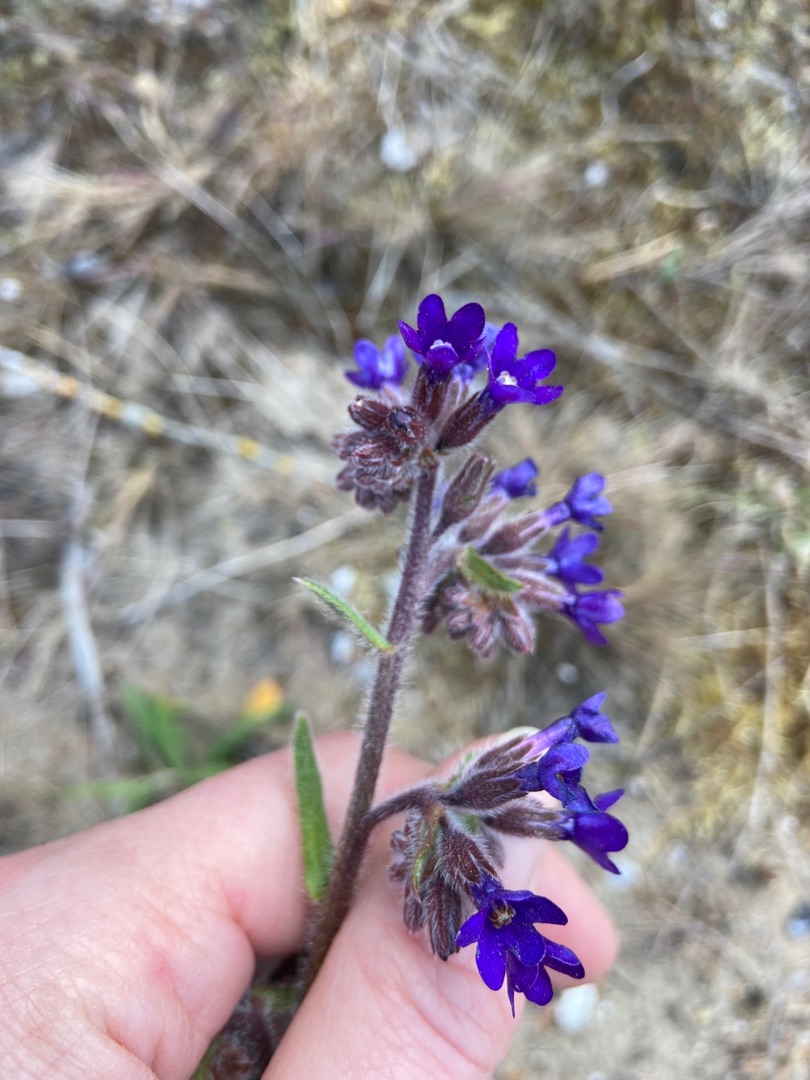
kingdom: Plantae
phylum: Tracheophyta
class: Magnoliopsida
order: Boraginales
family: Boraginaceae
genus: Anchusa
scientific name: Anchusa officinalis
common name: Læge-oksetunge
